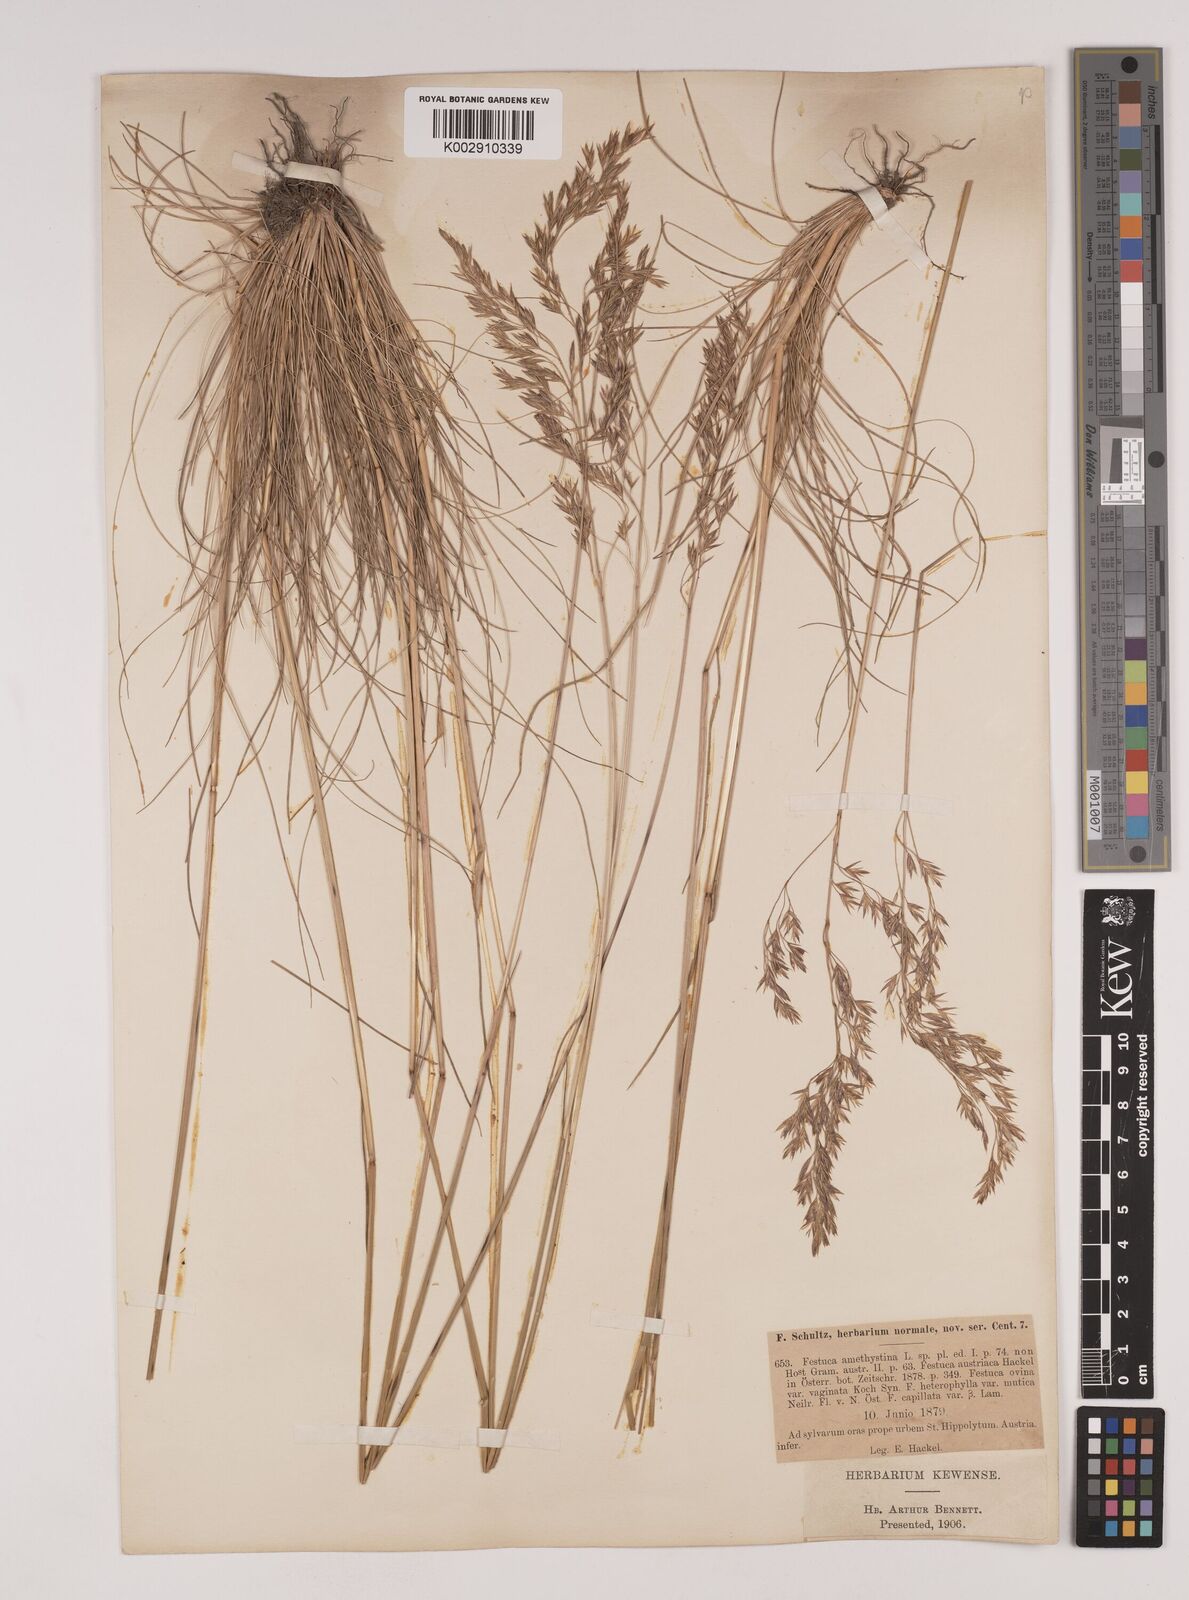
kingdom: Plantae
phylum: Tracheophyta
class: Liliopsida
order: Poales
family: Poaceae
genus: Festuca
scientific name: Festuca amethystina
